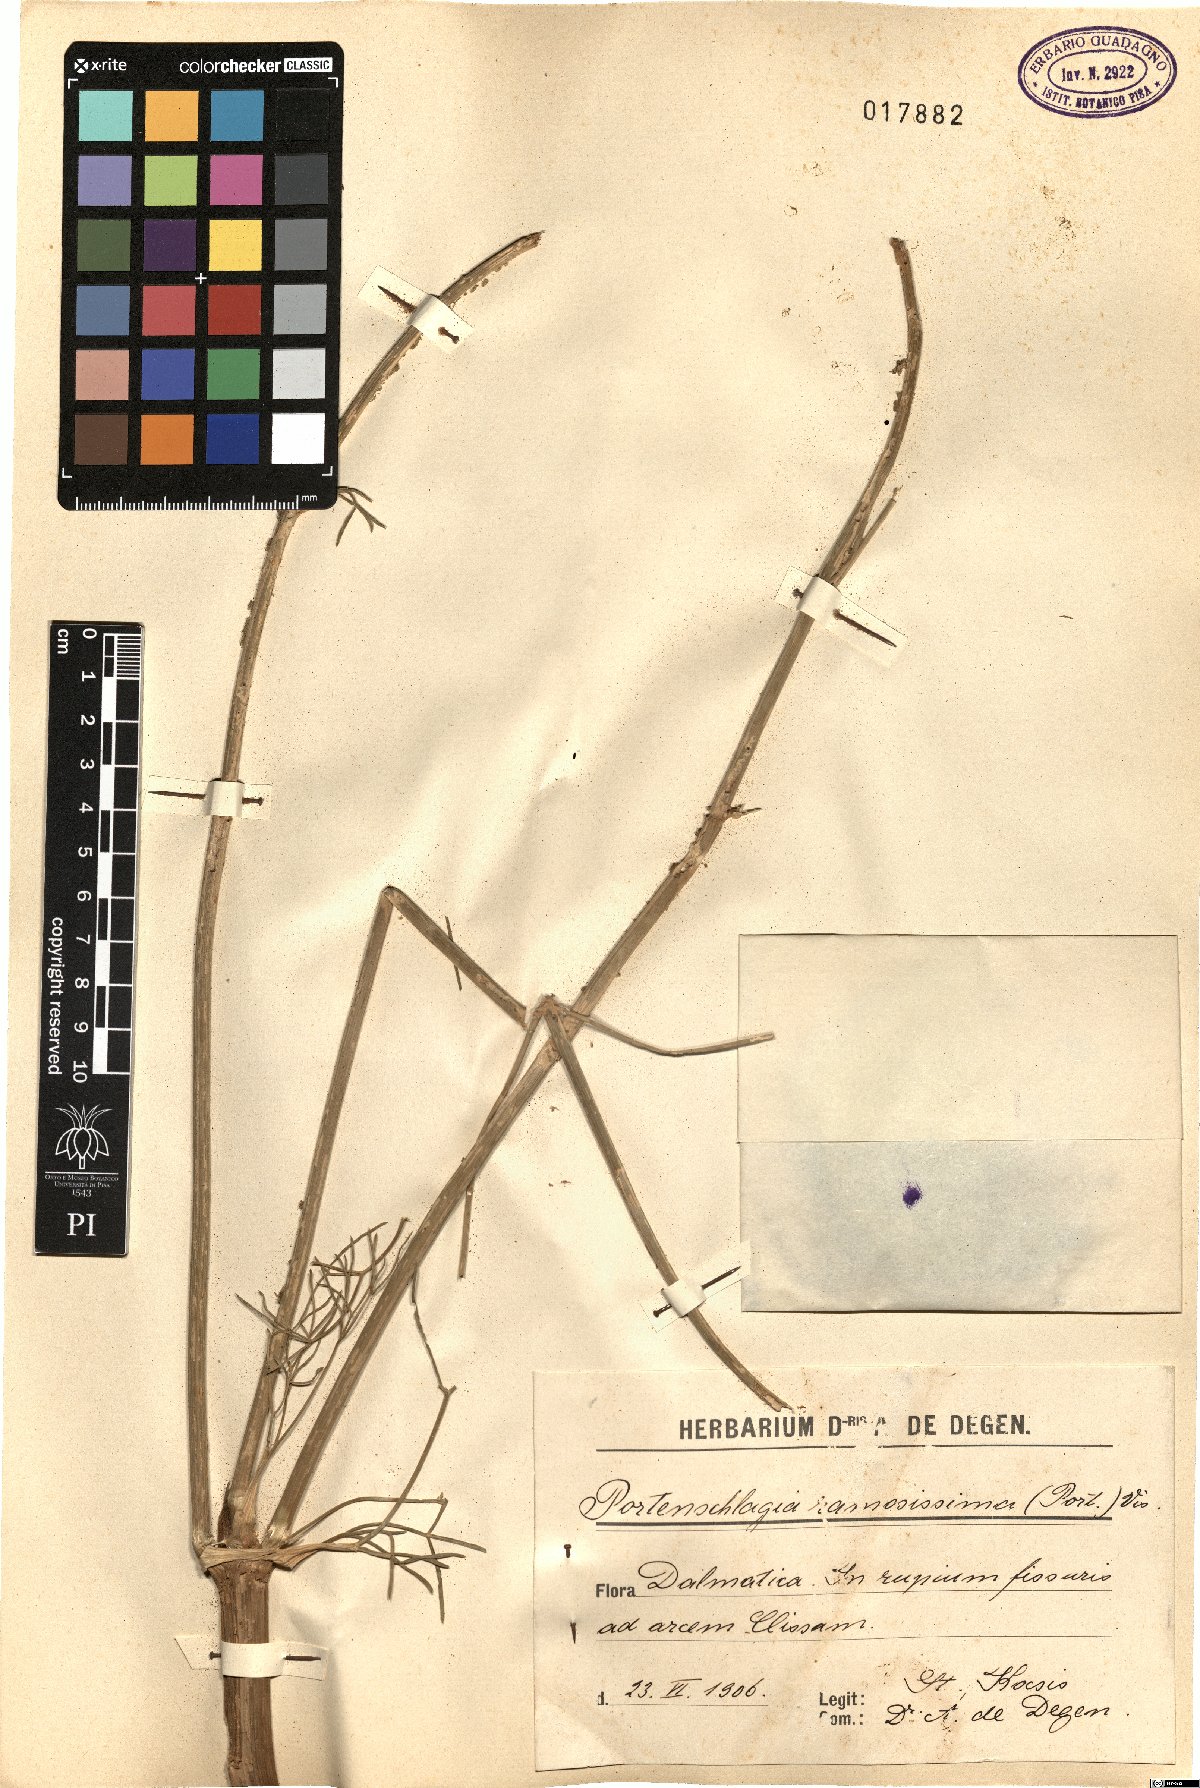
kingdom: Plantae
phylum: Tracheophyta
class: Magnoliopsida
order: Apiales
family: Apiaceae
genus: Athamanta
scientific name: Athamanta ramosissima
